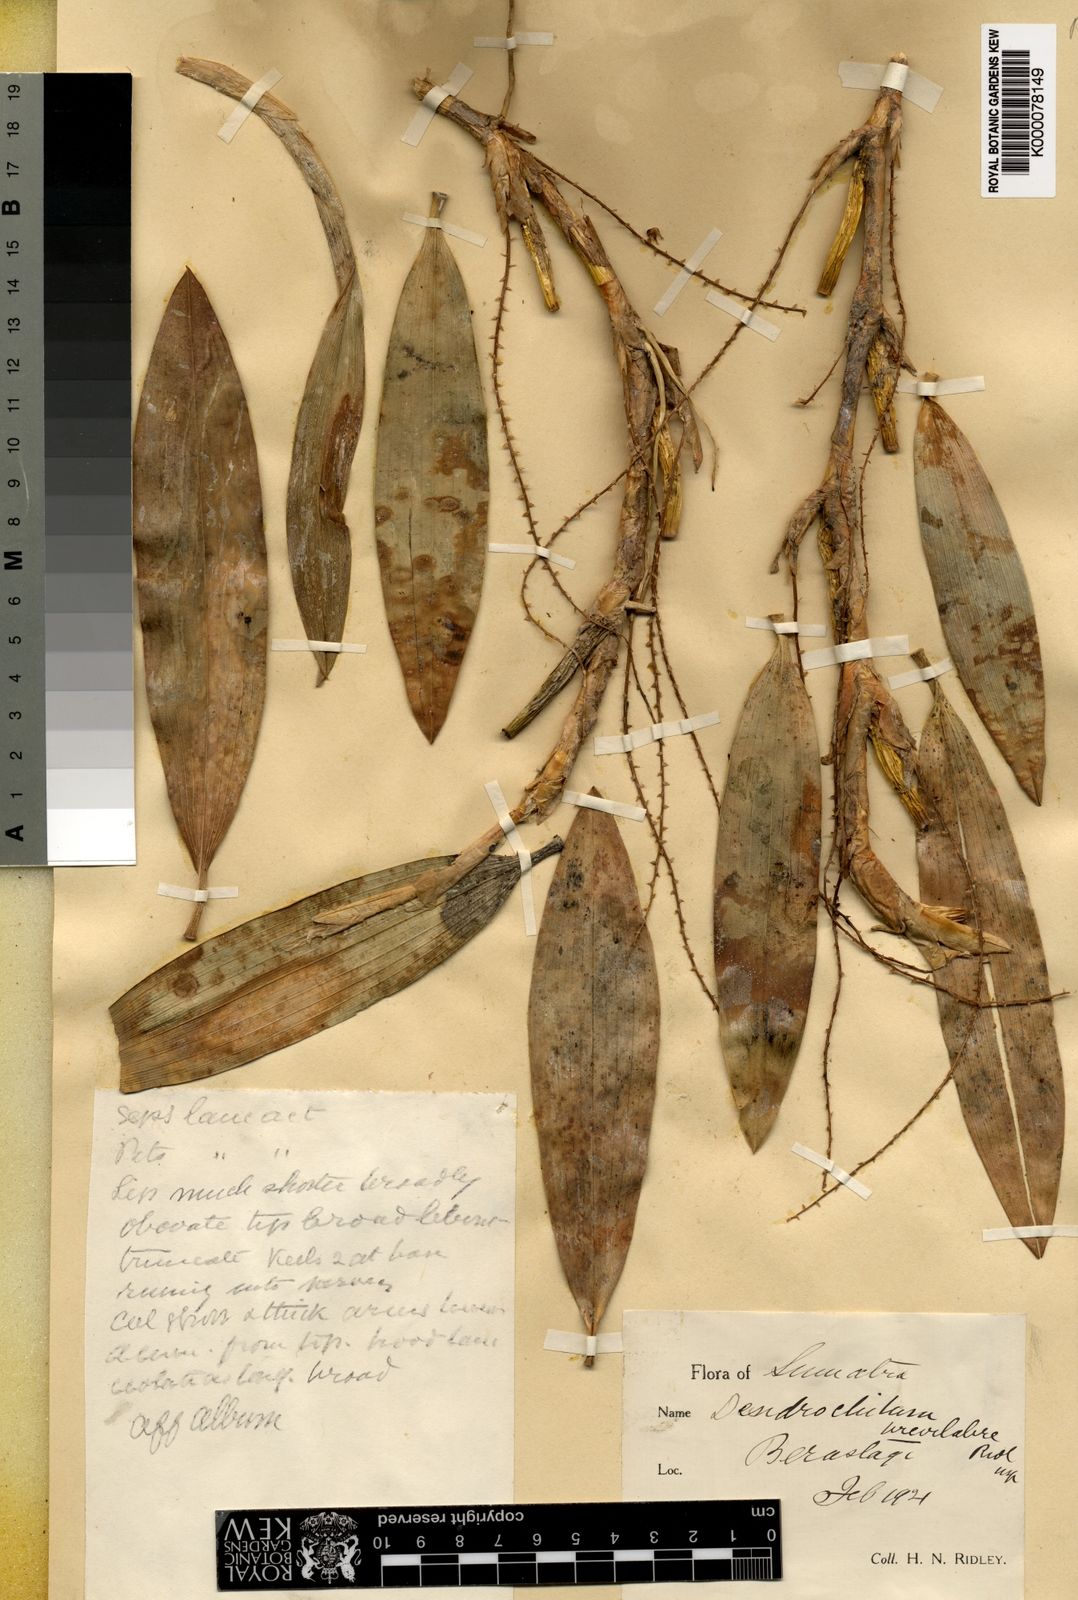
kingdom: Plantae
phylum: Tracheophyta
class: Liliopsida
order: Asparagales
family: Orchidaceae
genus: Coelogyne
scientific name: Coelogyne brevilabris
